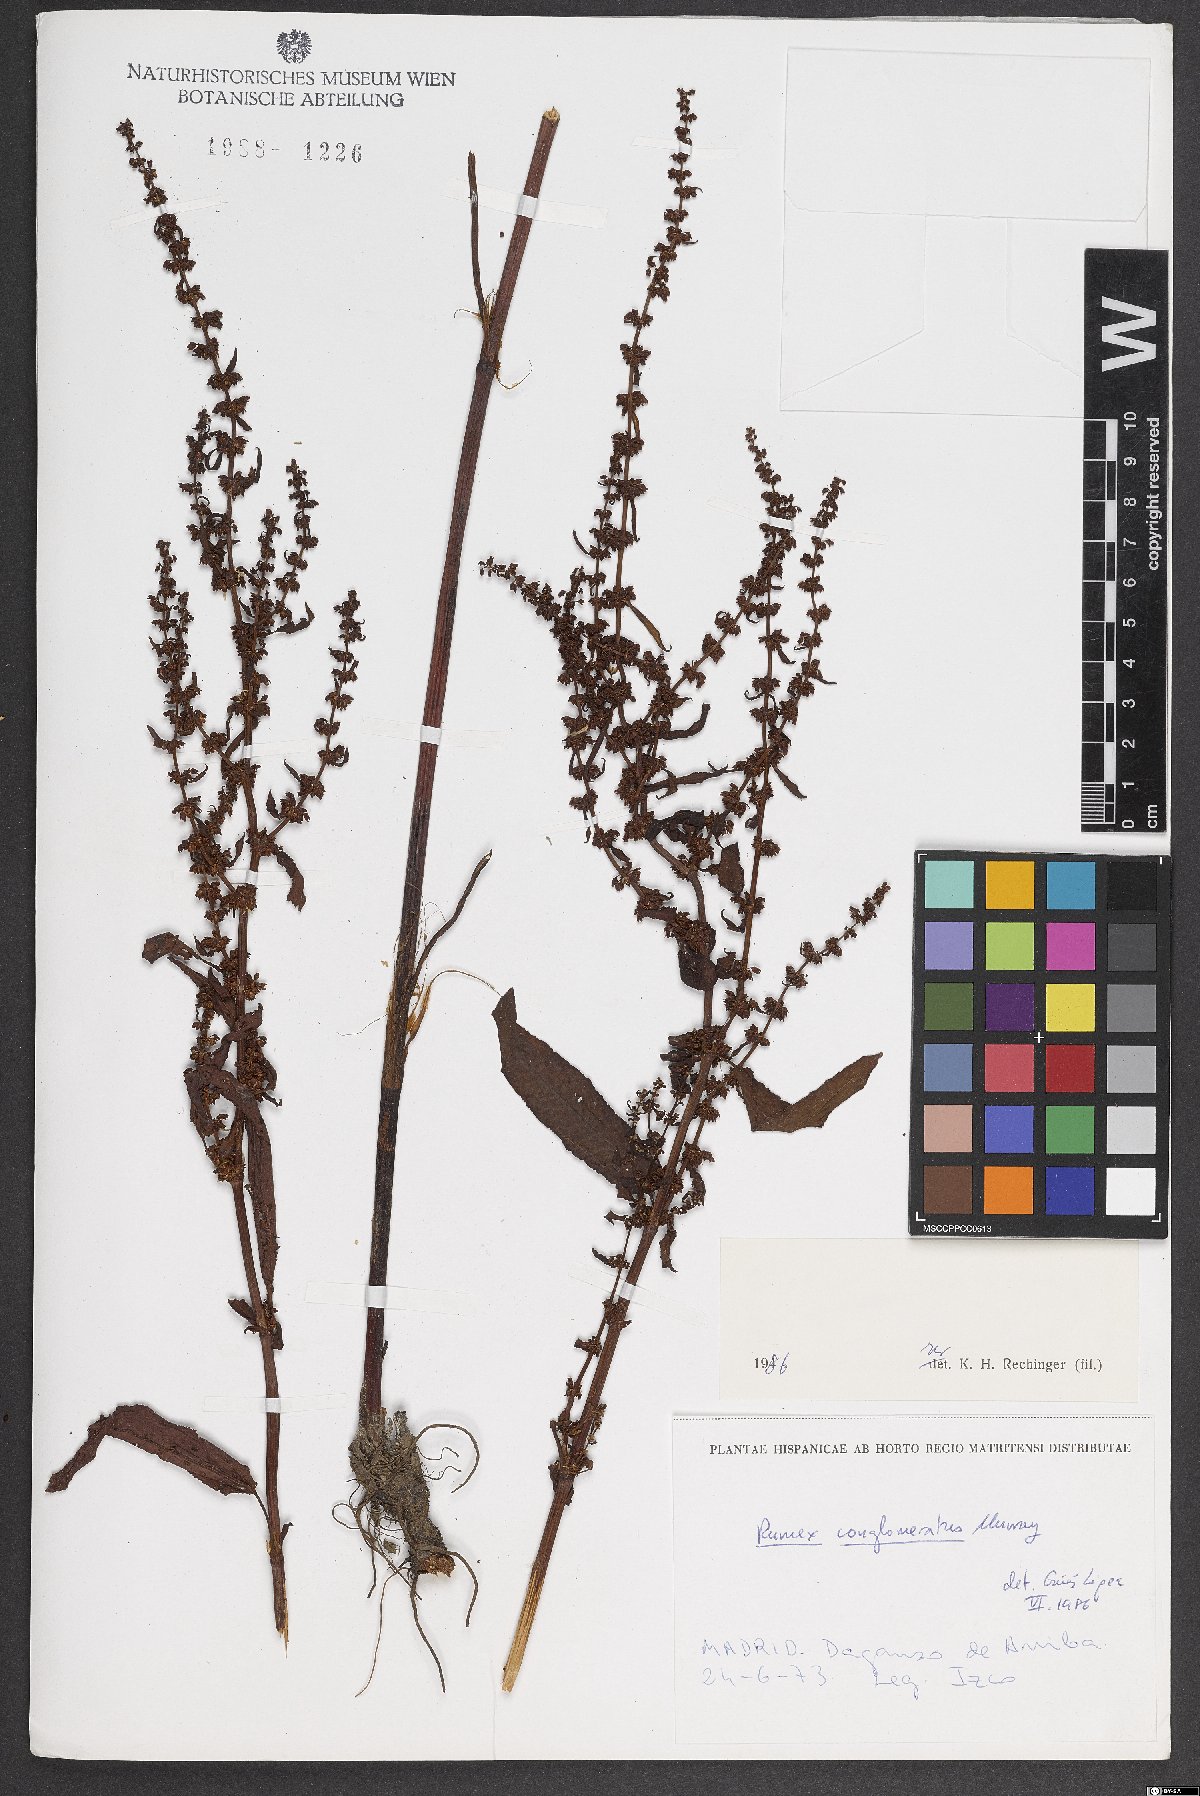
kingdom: Plantae
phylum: Tracheophyta
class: Magnoliopsida
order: Caryophyllales
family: Polygonaceae
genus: Rumex
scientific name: Rumex conglomeratus
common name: Clustered dock
